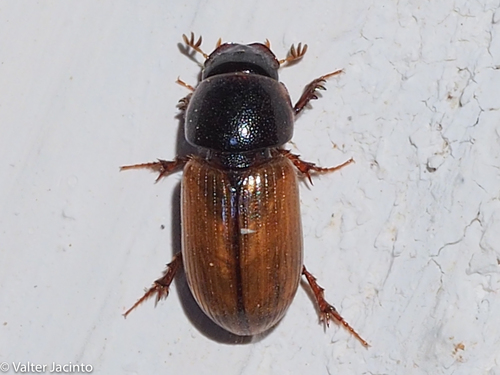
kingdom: Animalia
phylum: Arthropoda
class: Insecta
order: Coleoptera
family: Scarabaeidae
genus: Bodiloides
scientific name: Bodiloides ictericus
